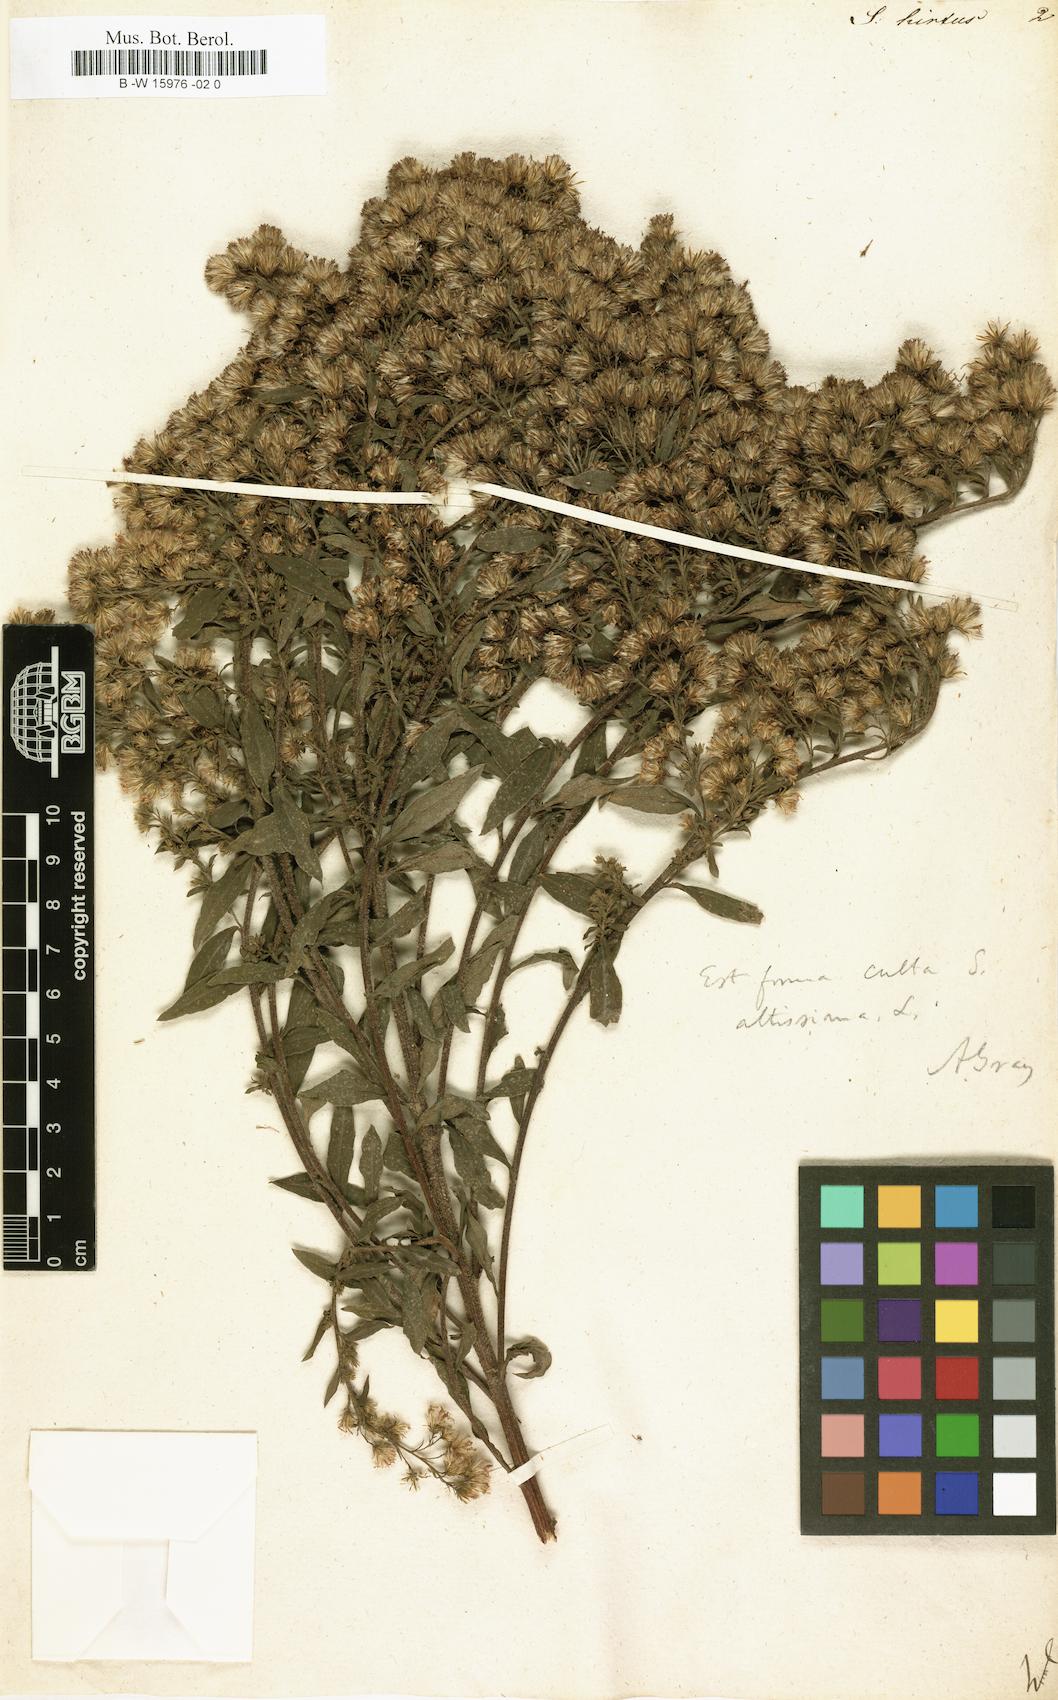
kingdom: Plantae
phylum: Tracheophyta
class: Magnoliopsida
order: Asterales
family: Asteraceae
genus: Solidago
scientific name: Solidago rugosa
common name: Rough-stemmed goldenrod
